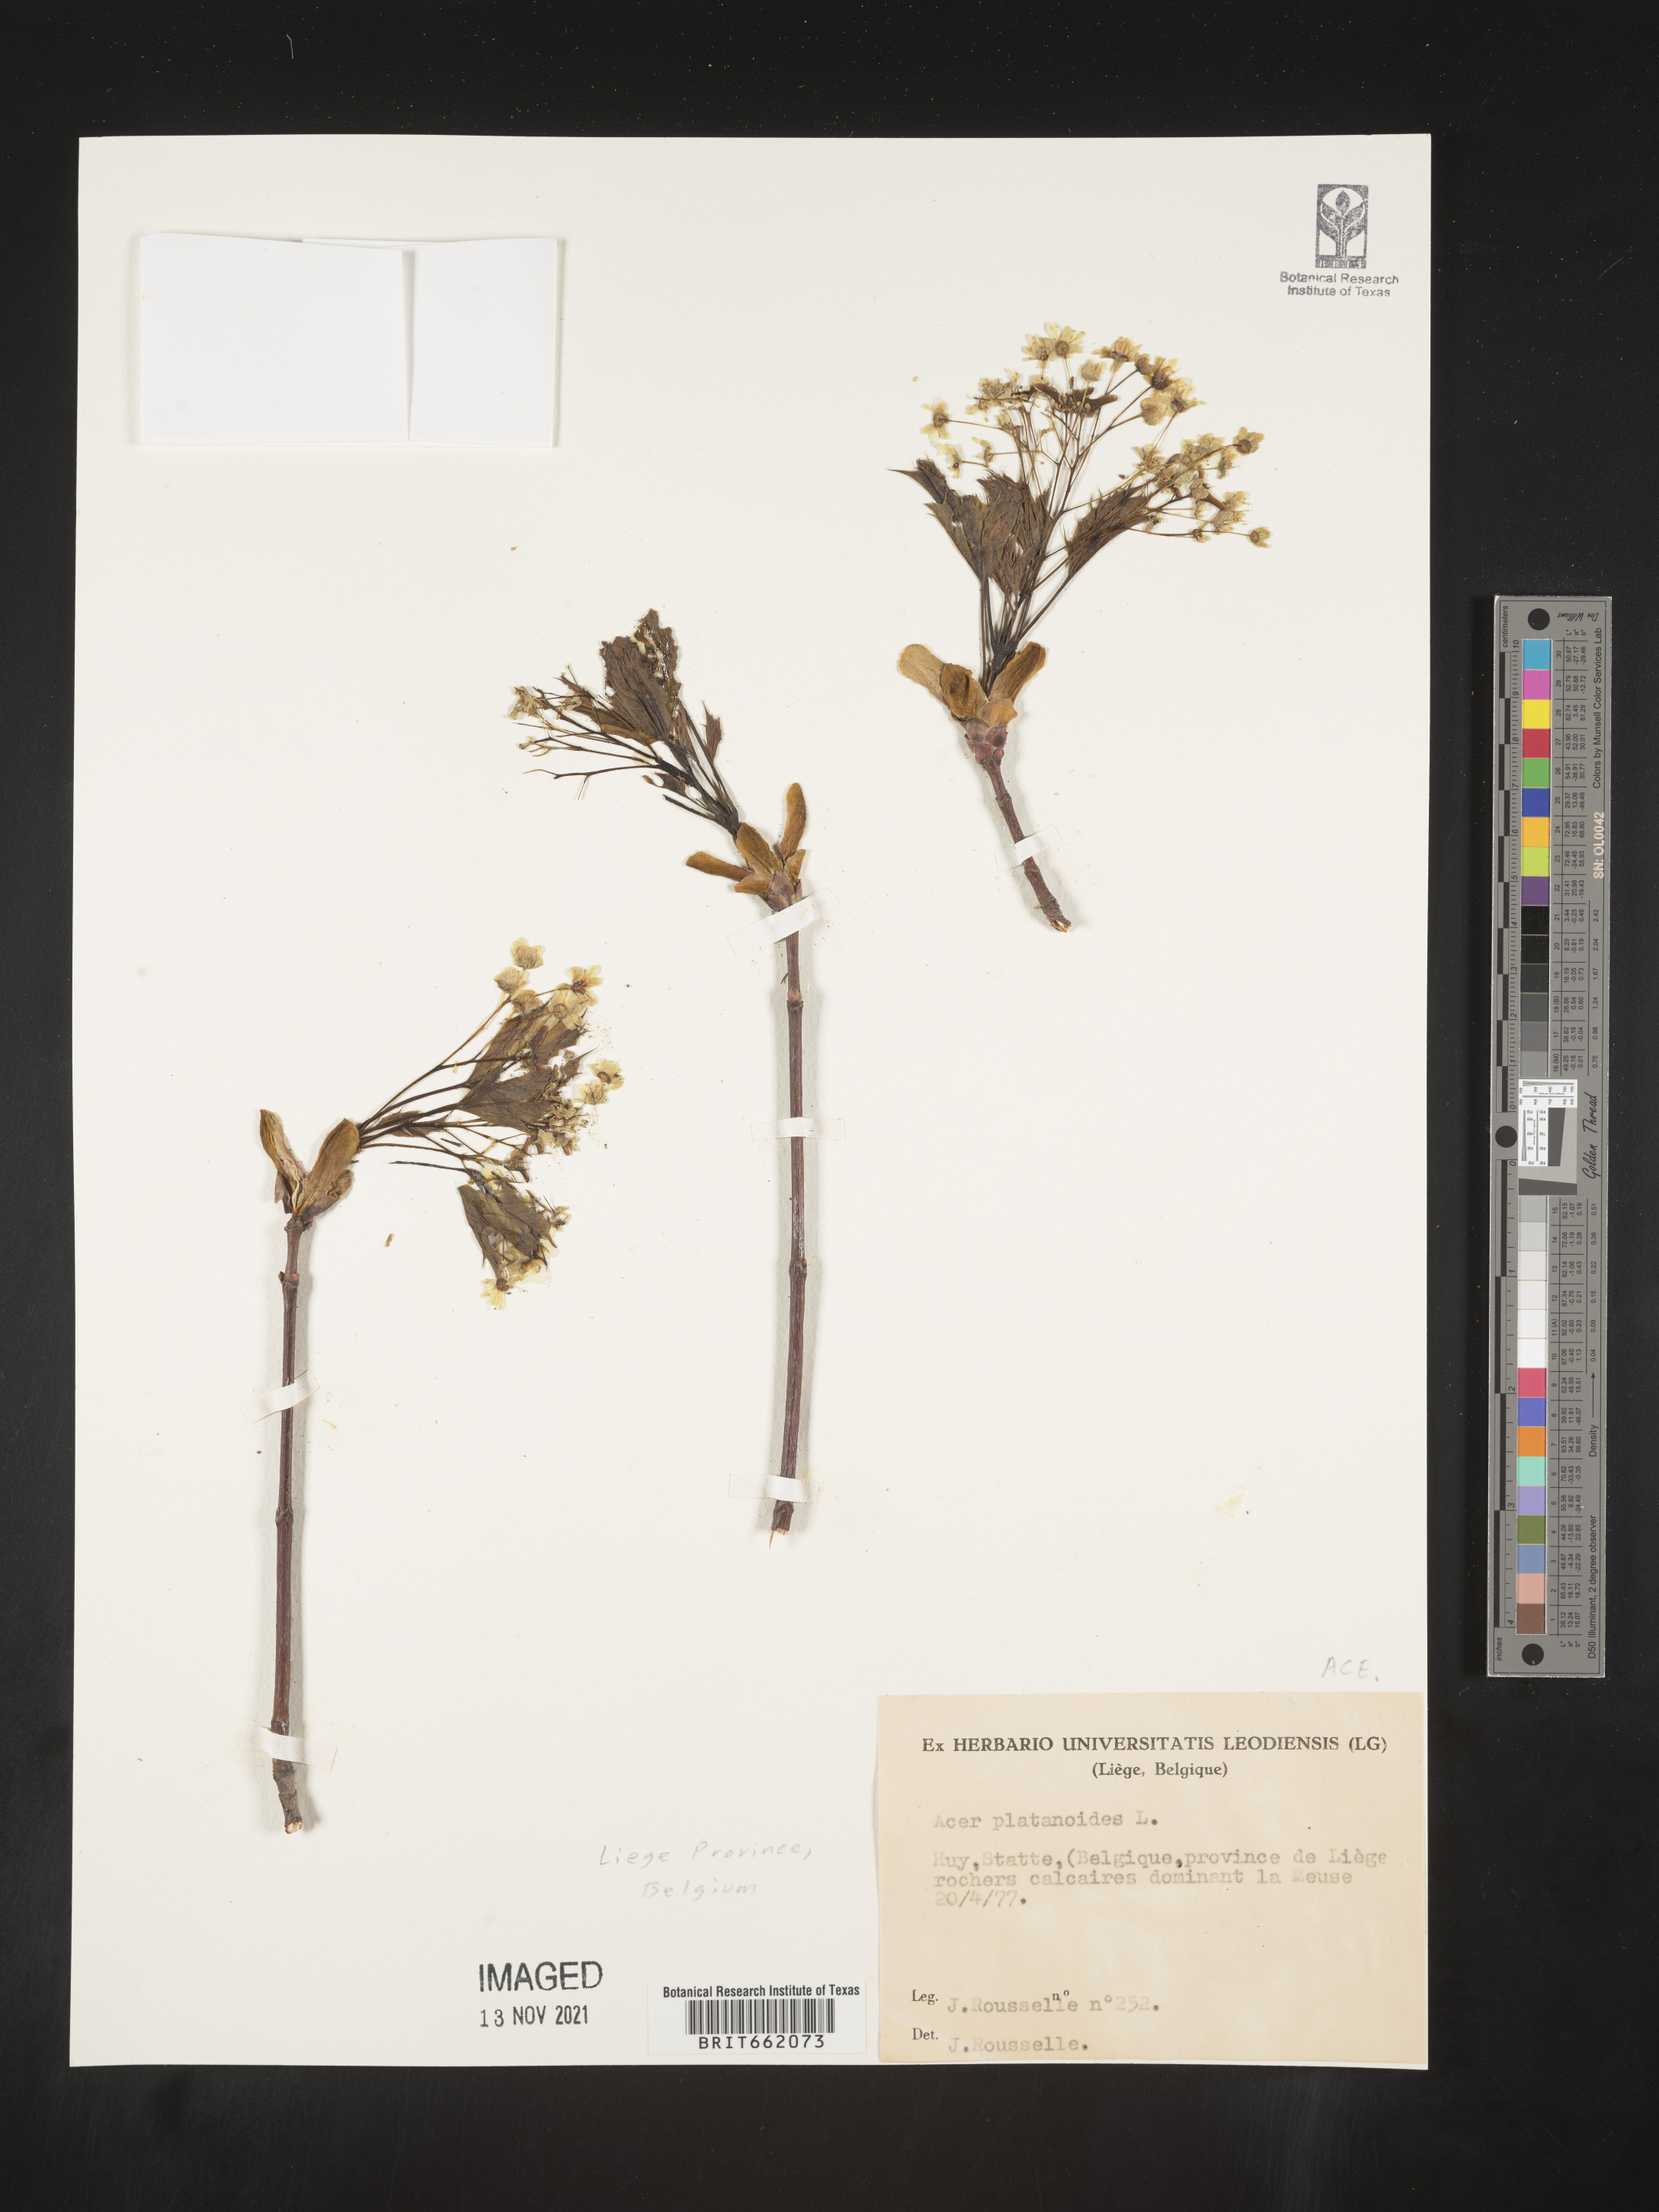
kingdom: Plantae
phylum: Tracheophyta
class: Magnoliopsida
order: Sapindales
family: Sapindaceae
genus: Acer
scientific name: Acer
